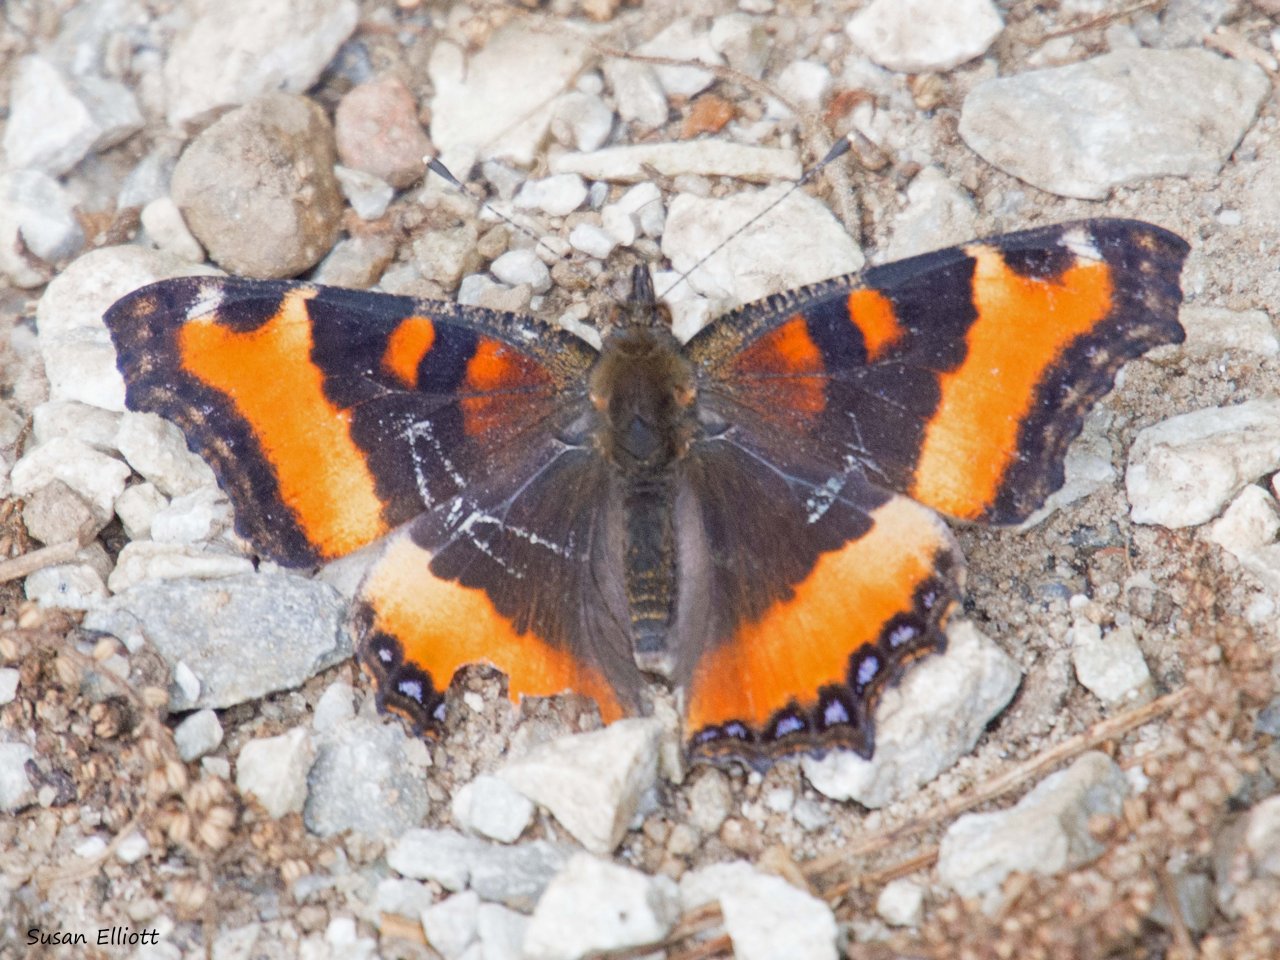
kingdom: Animalia
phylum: Arthropoda
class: Insecta
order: Lepidoptera
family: Nymphalidae
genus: Aglais
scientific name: Aglais milberti
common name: Milbert's Tortoiseshell
